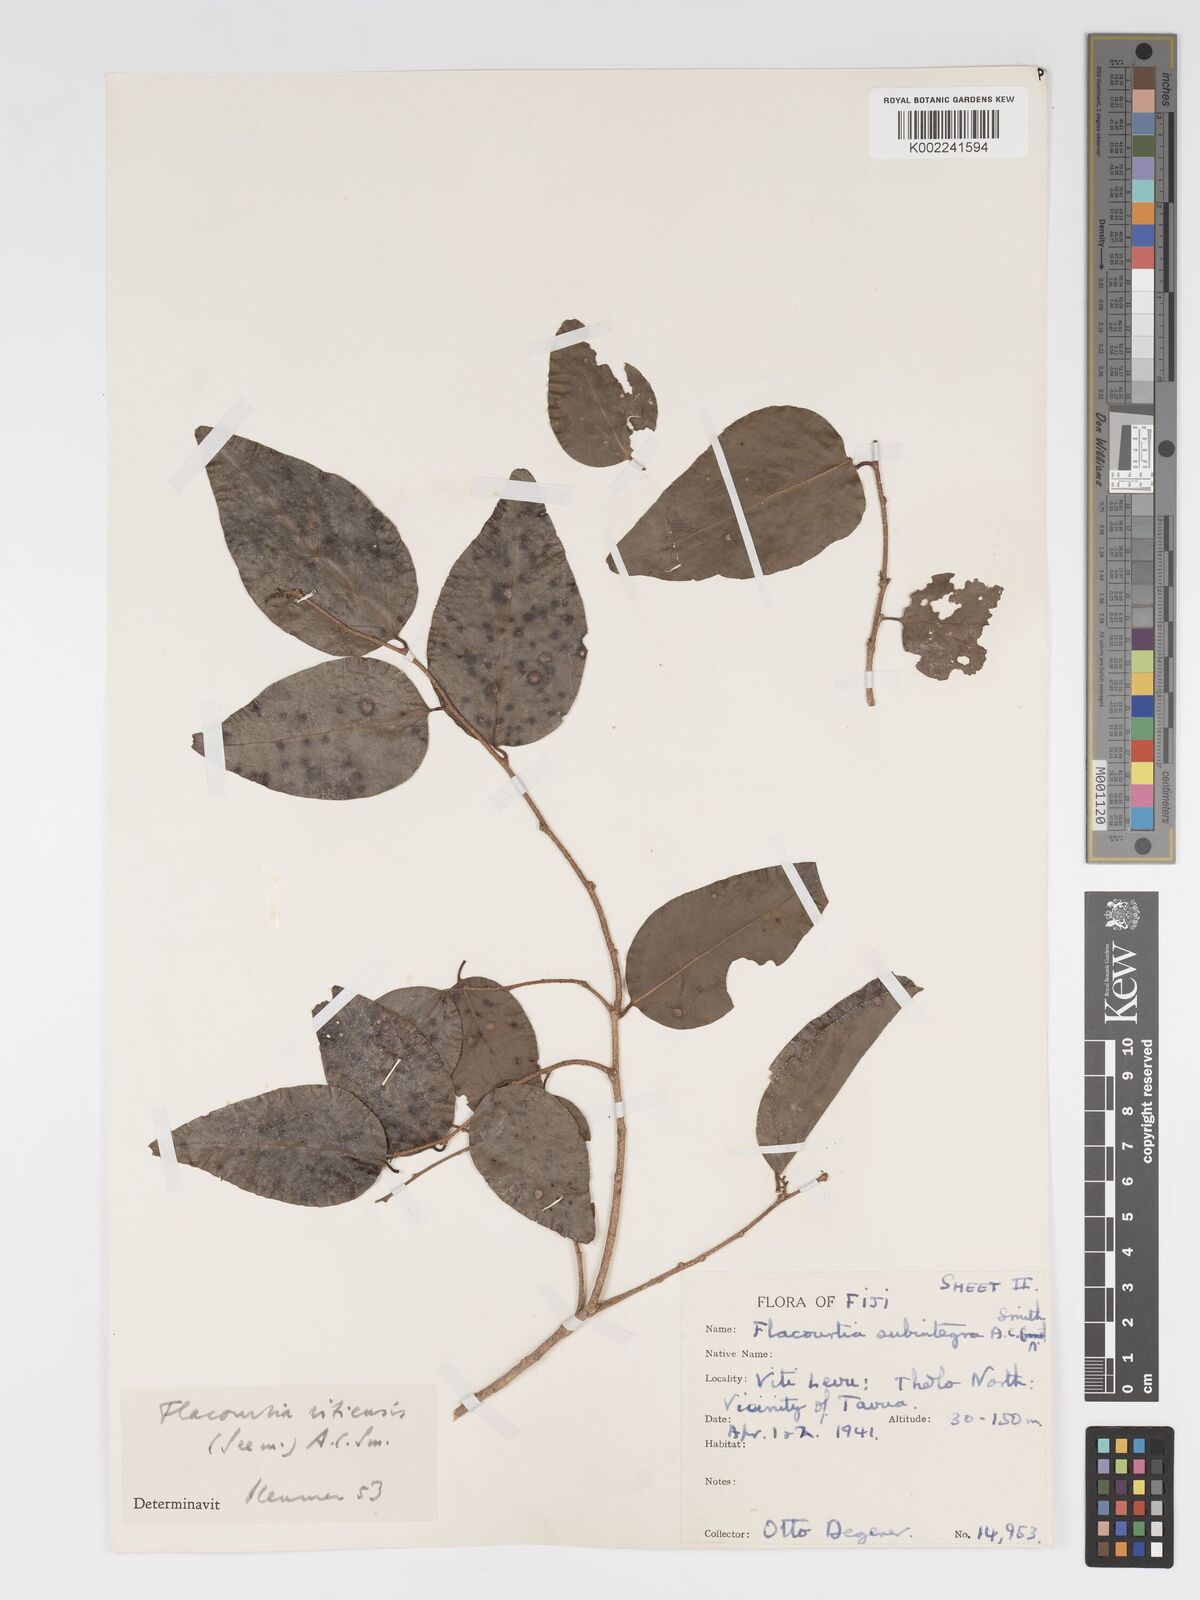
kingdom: Plantae
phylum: Tracheophyta
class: Magnoliopsida
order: Malpighiales
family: Salicaceae
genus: Flacourtia
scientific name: Flacourtia vitiensis
